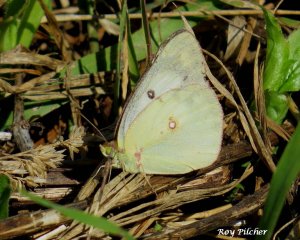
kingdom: Animalia
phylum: Arthropoda
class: Insecta
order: Lepidoptera
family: Pieridae
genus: Colias
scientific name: Colias philodice
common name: Clouded Sulphur
